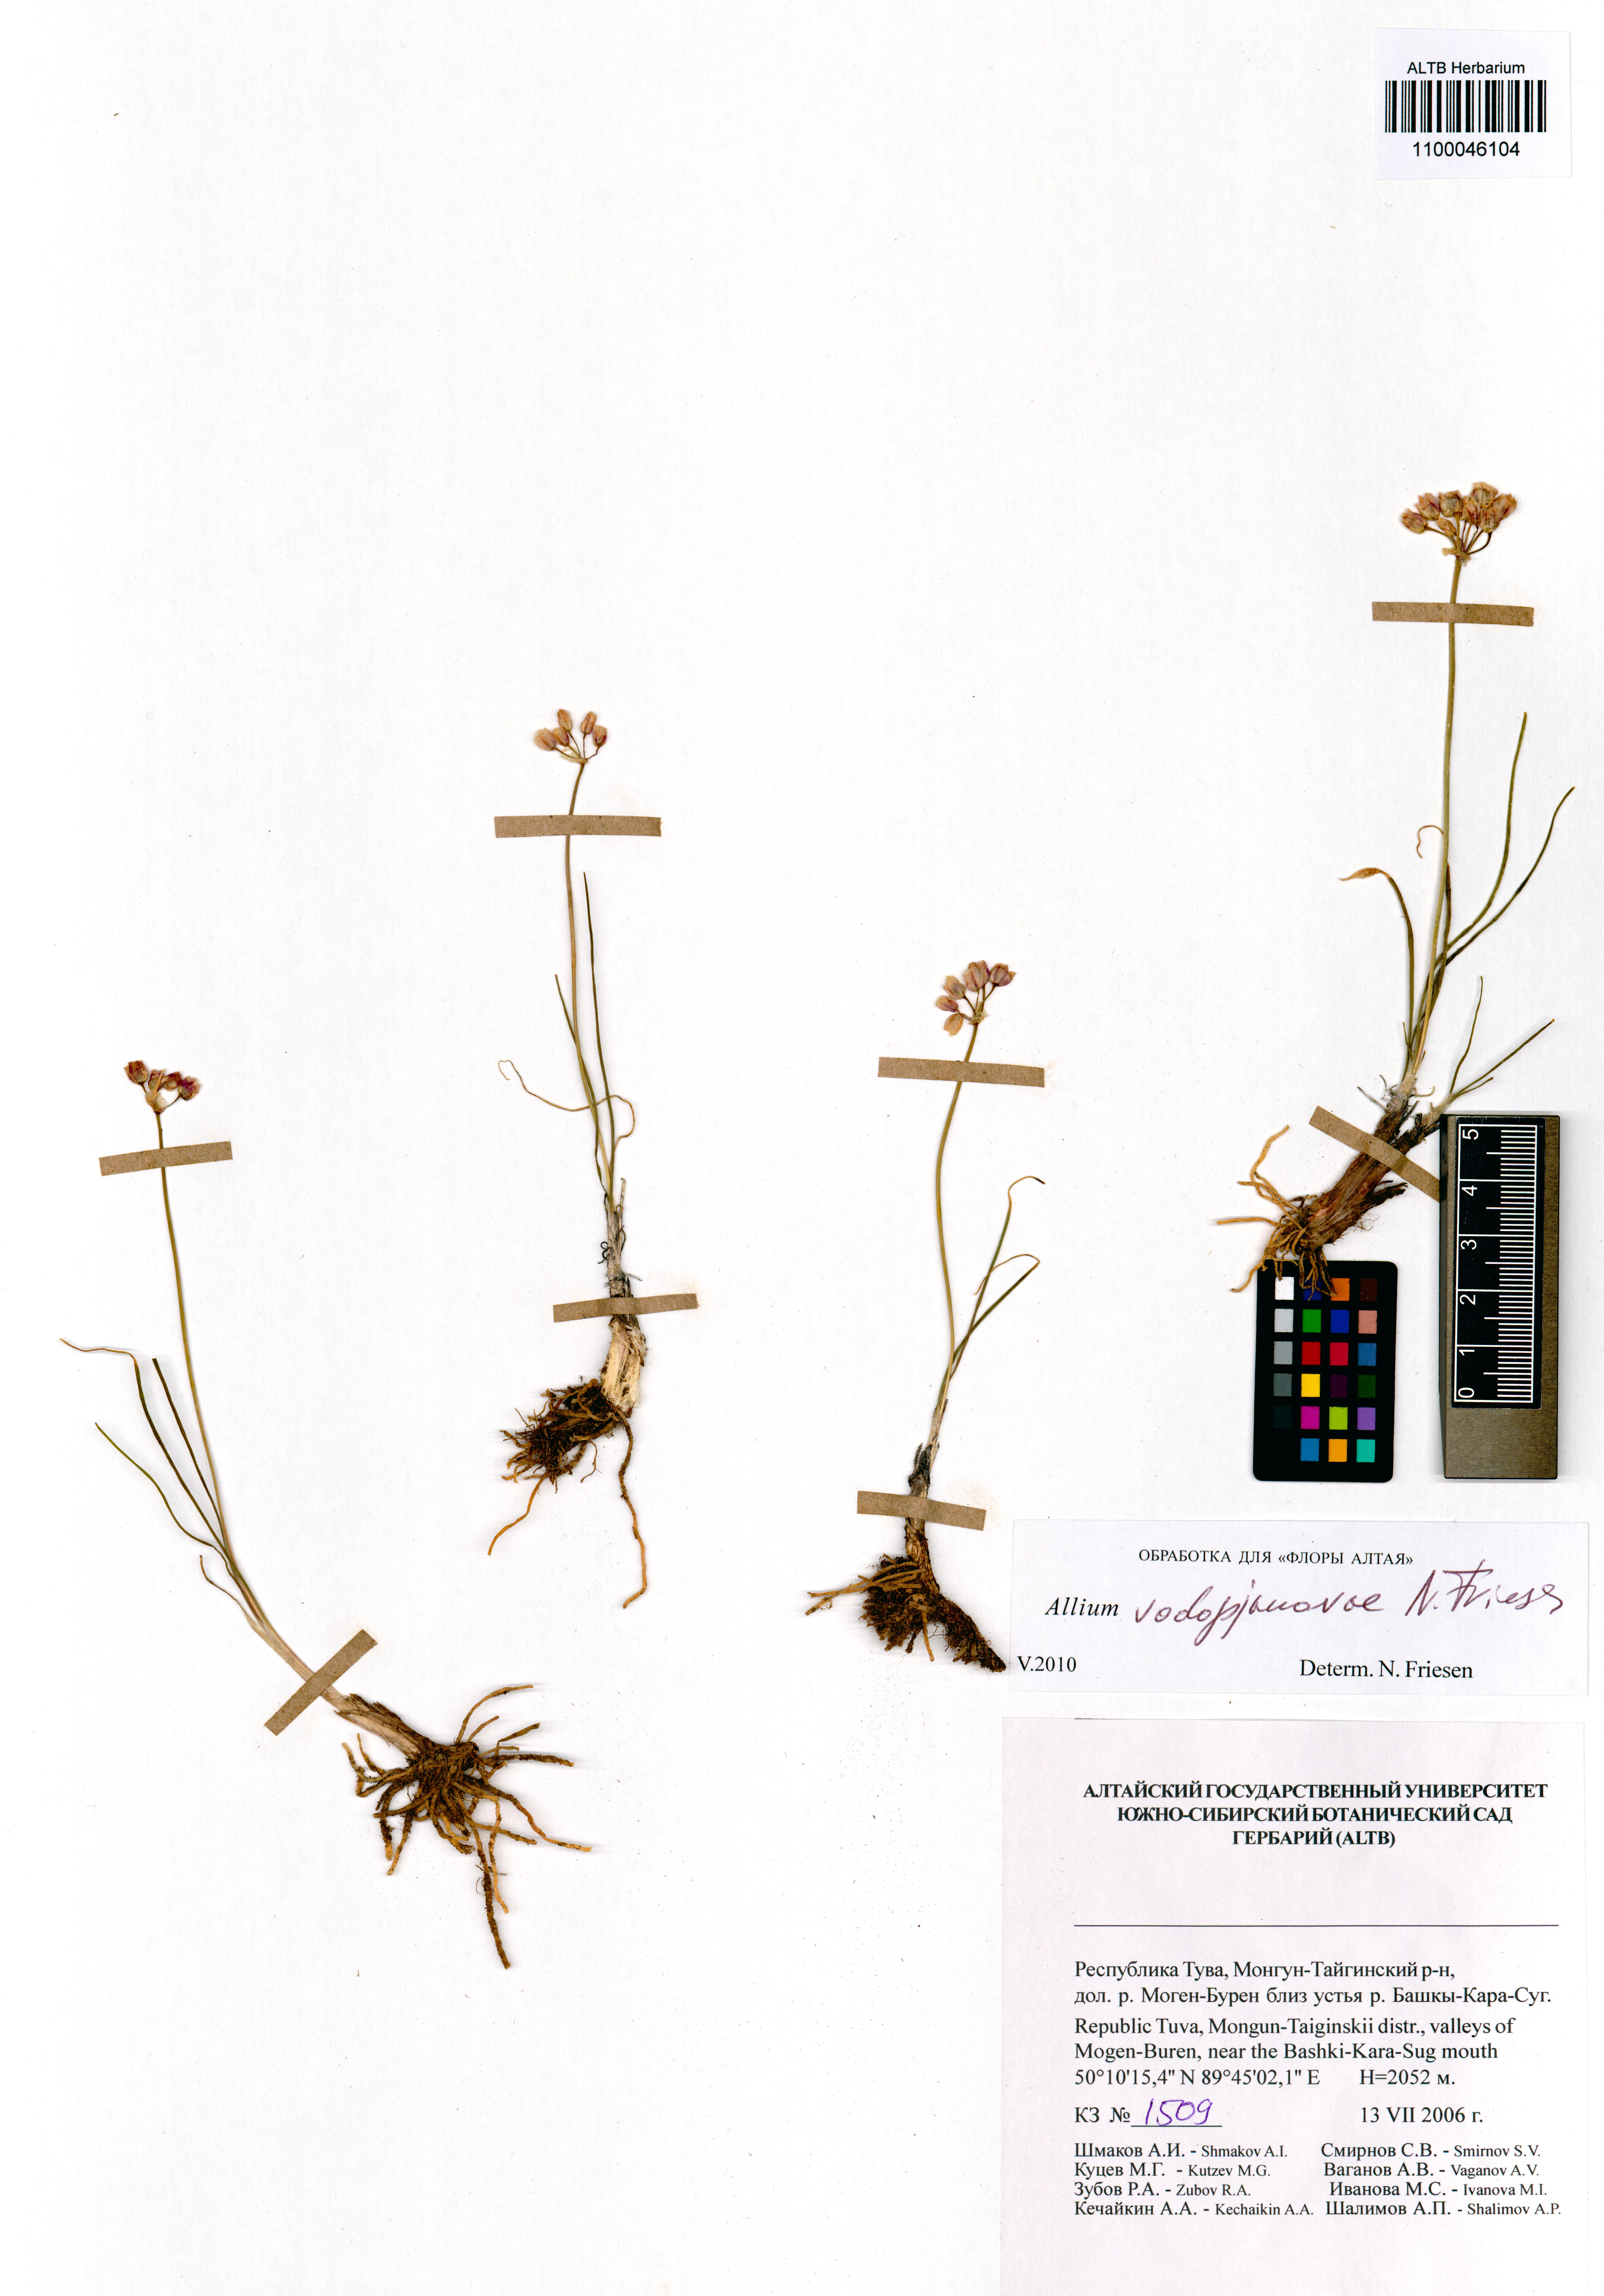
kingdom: Plantae
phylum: Tracheophyta
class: Liliopsida
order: Asparagales
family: Amaryllidaceae
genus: Allium
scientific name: Allium vodopjanovae
